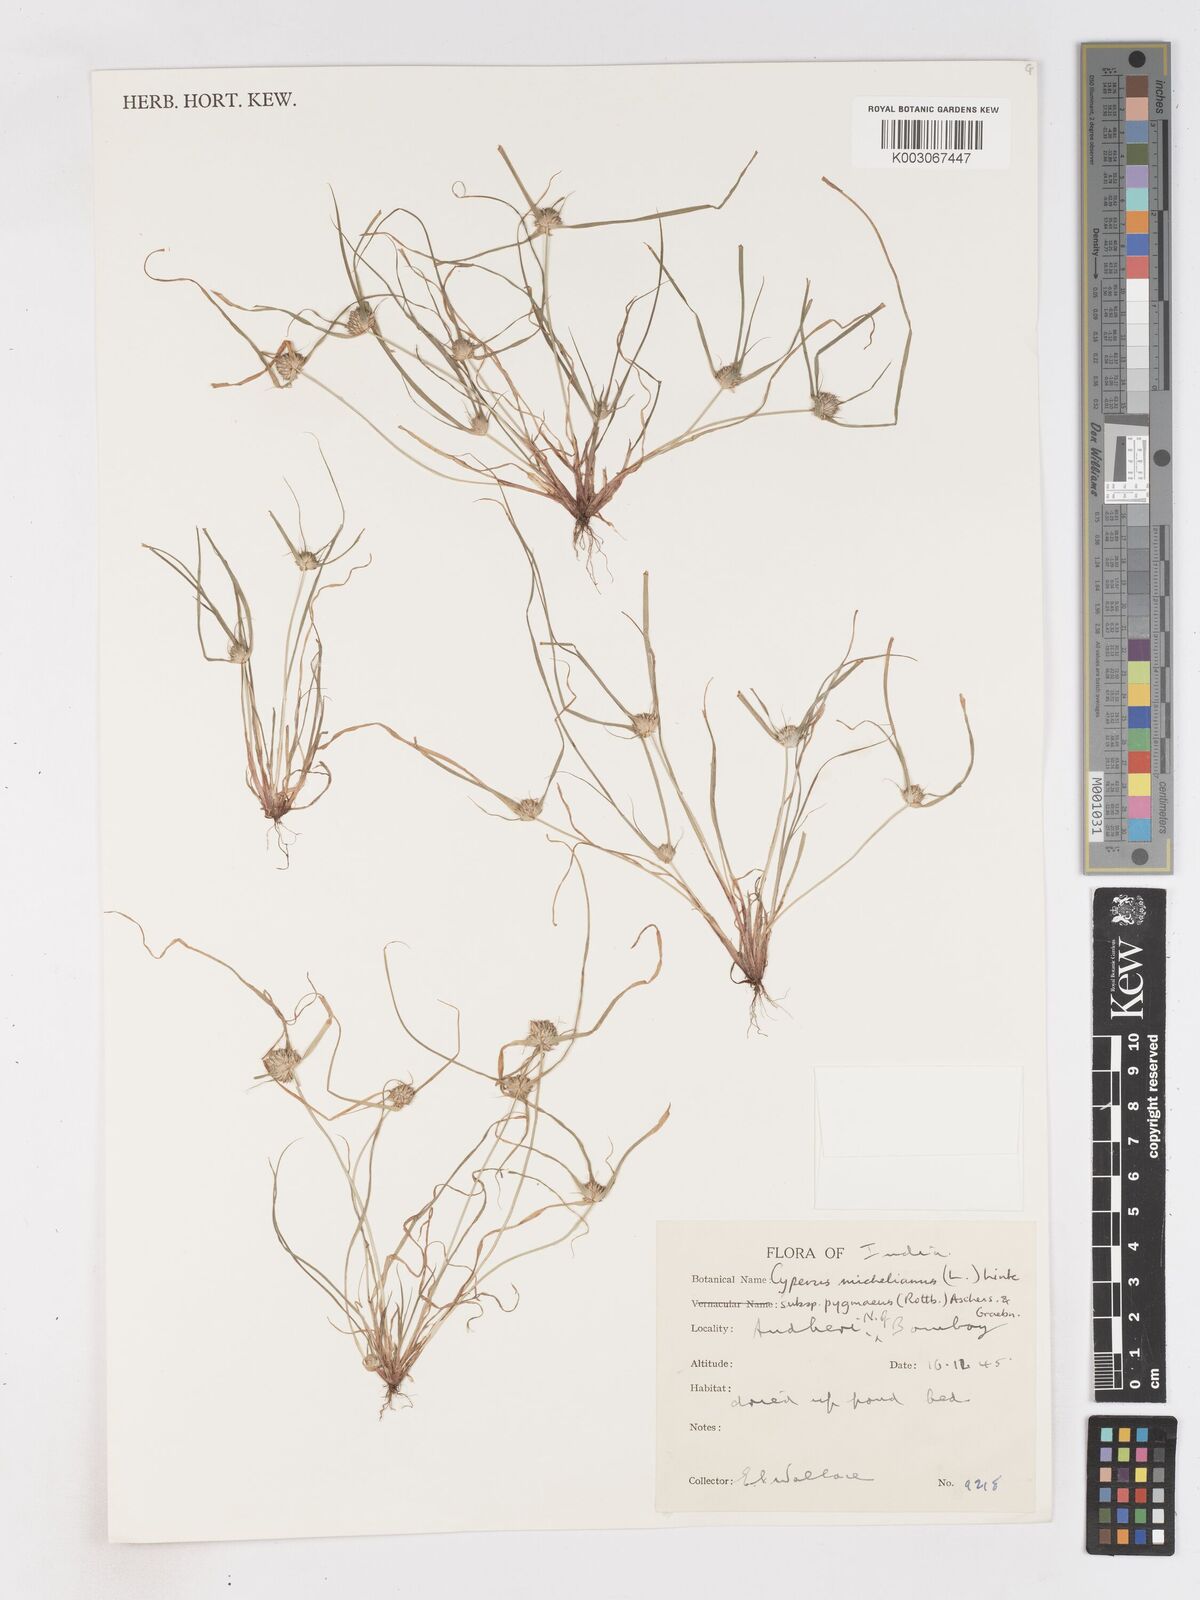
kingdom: Plantae
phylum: Tracheophyta
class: Liliopsida
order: Poales
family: Cyperaceae
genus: Cyperus
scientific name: Cyperus michelianus
